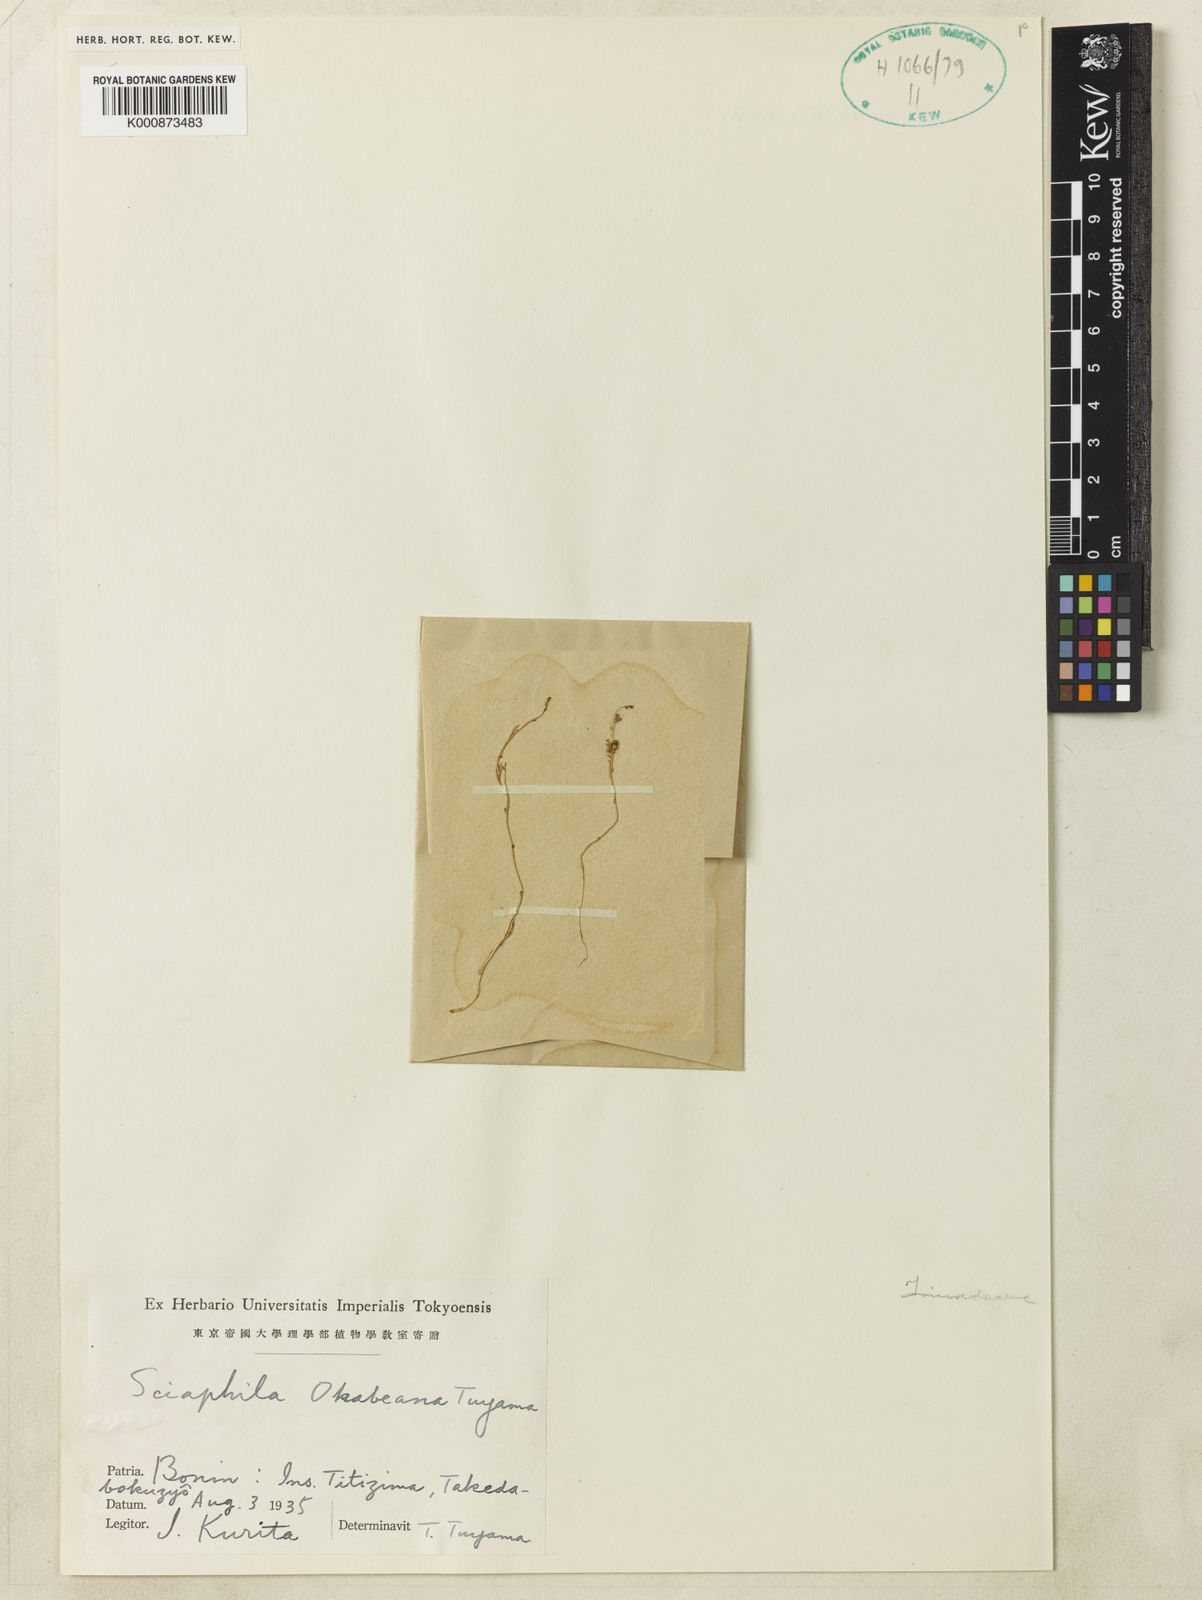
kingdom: Plantae
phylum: Tracheophyta
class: Liliopsida
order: Pandanales
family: Triuridaceae
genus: Sciaphila
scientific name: Sciaphila ramosa
